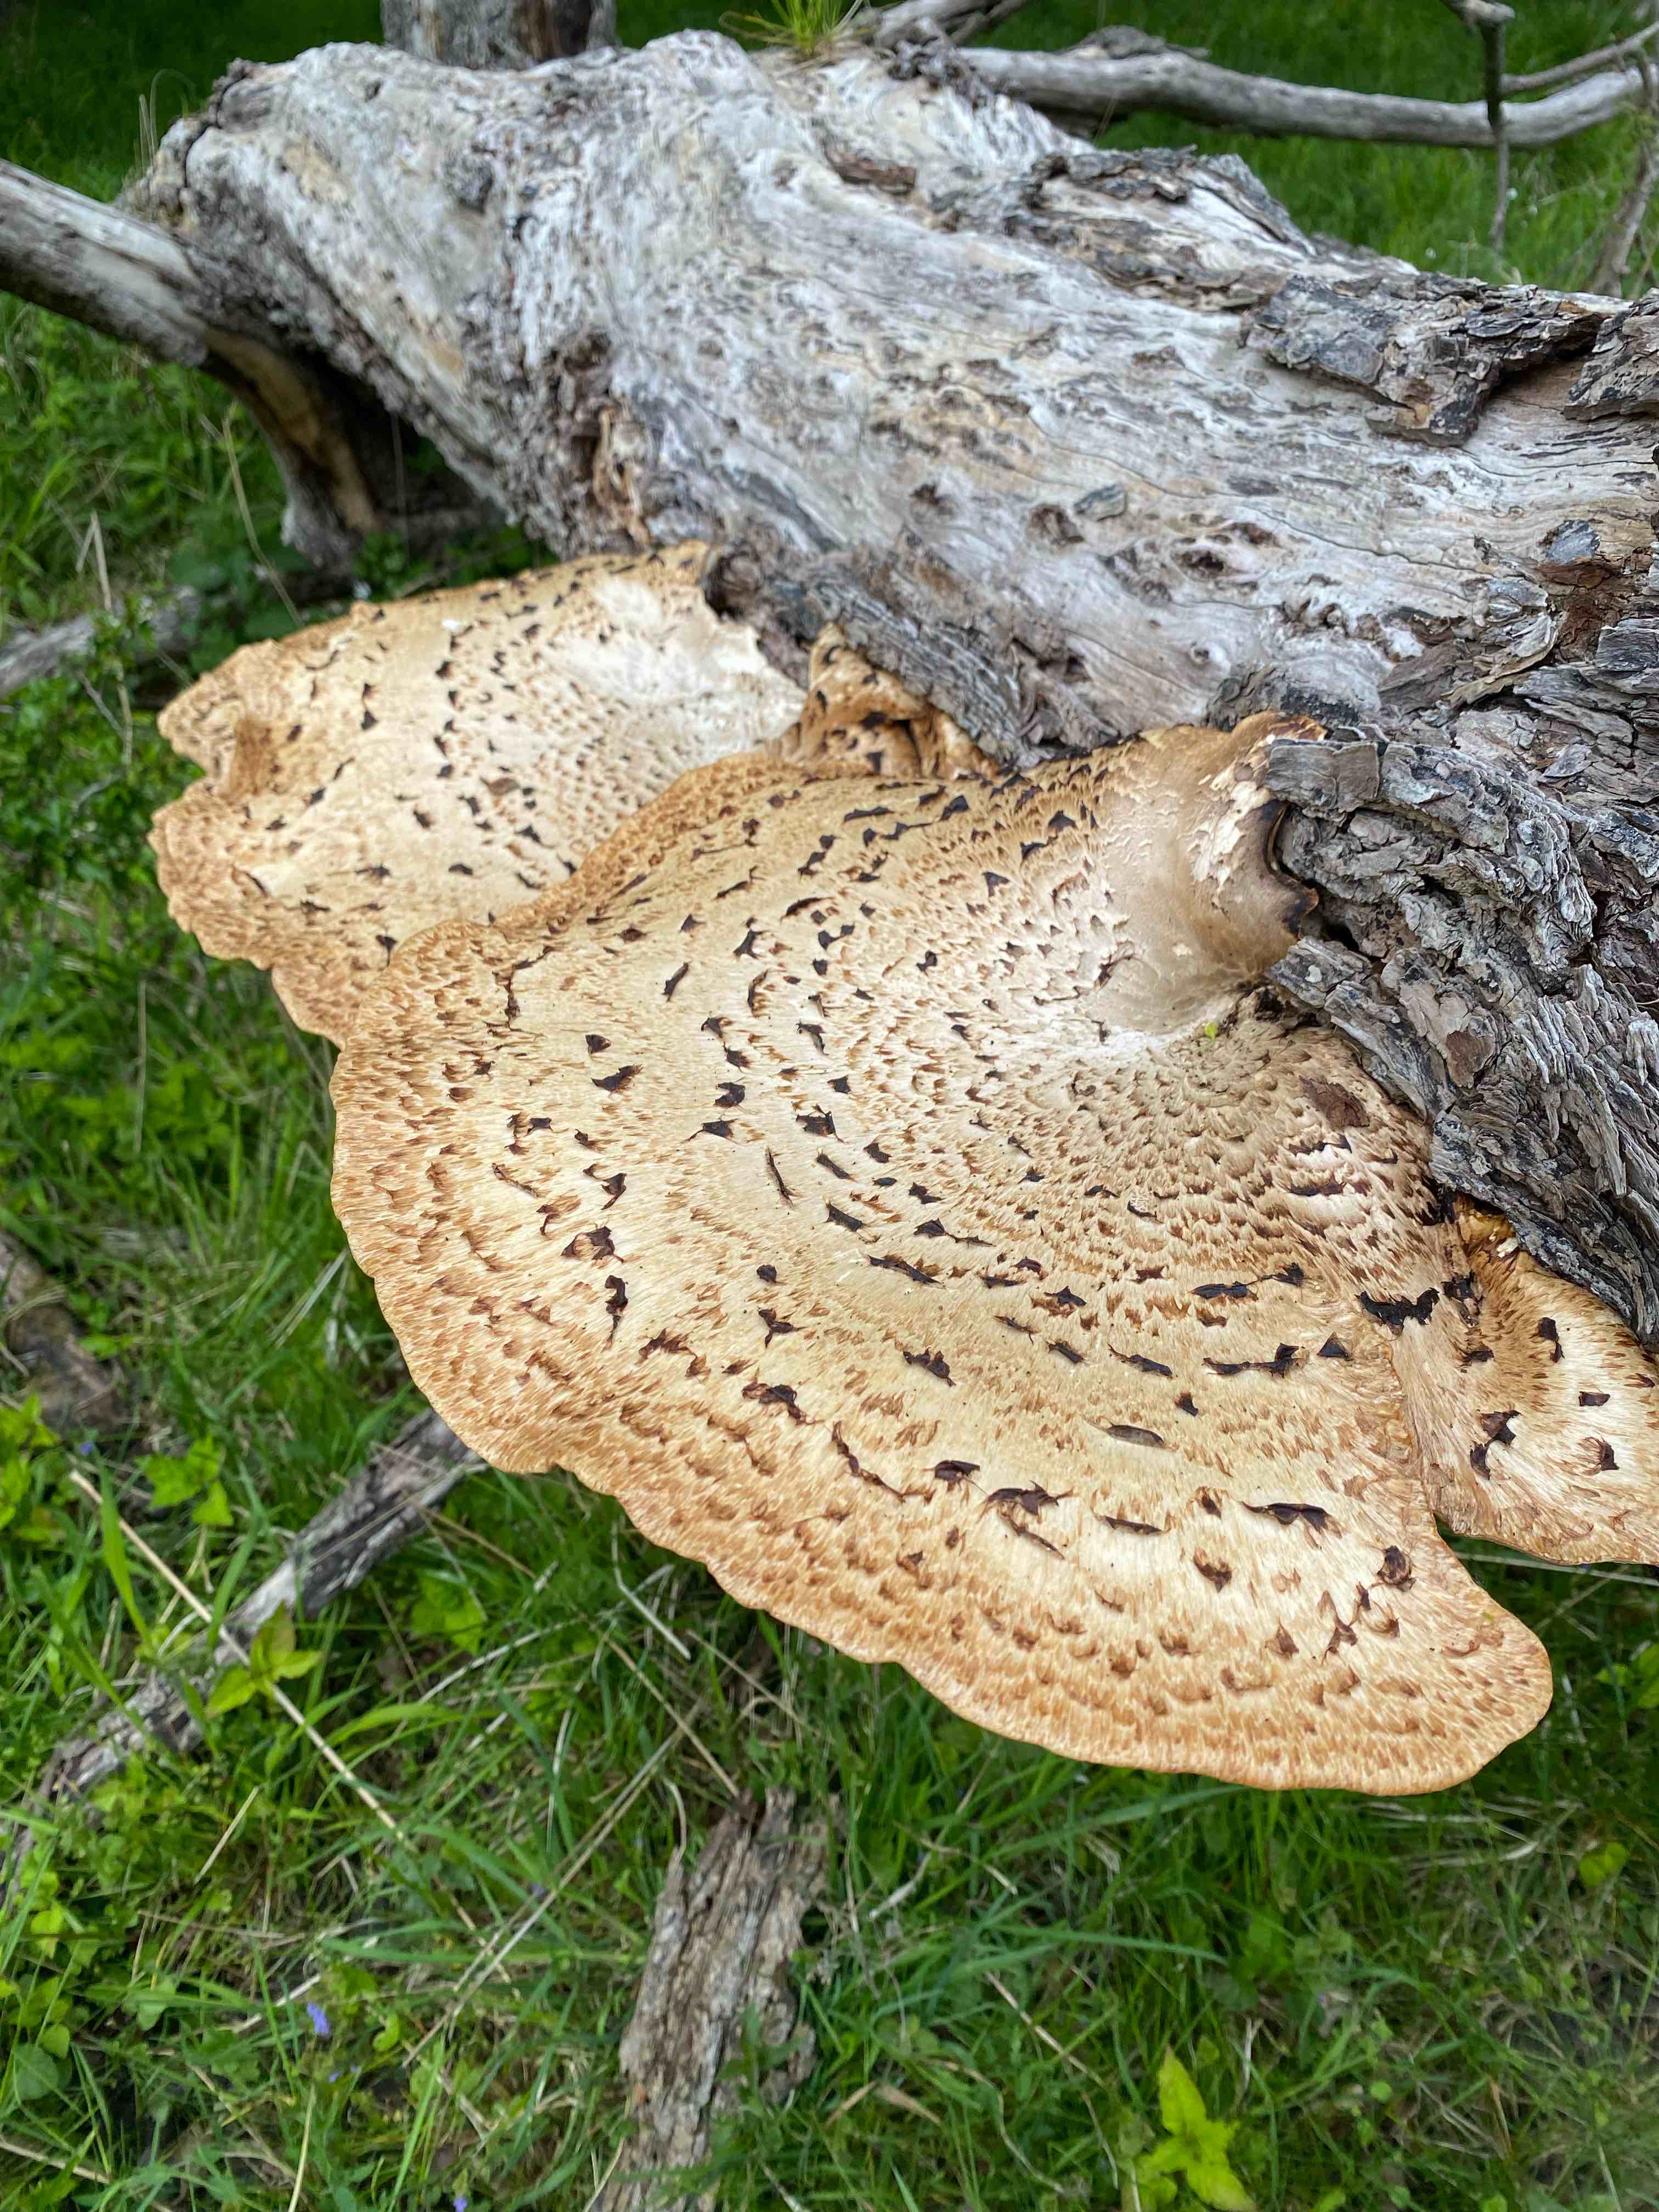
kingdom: Fungi
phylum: Basidiomycota
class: Agaricomycetes
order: Polyporales
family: Polyporaceae
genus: Cerioporus
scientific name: Cerioporus squamosus
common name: skællet stilkporesvamp
